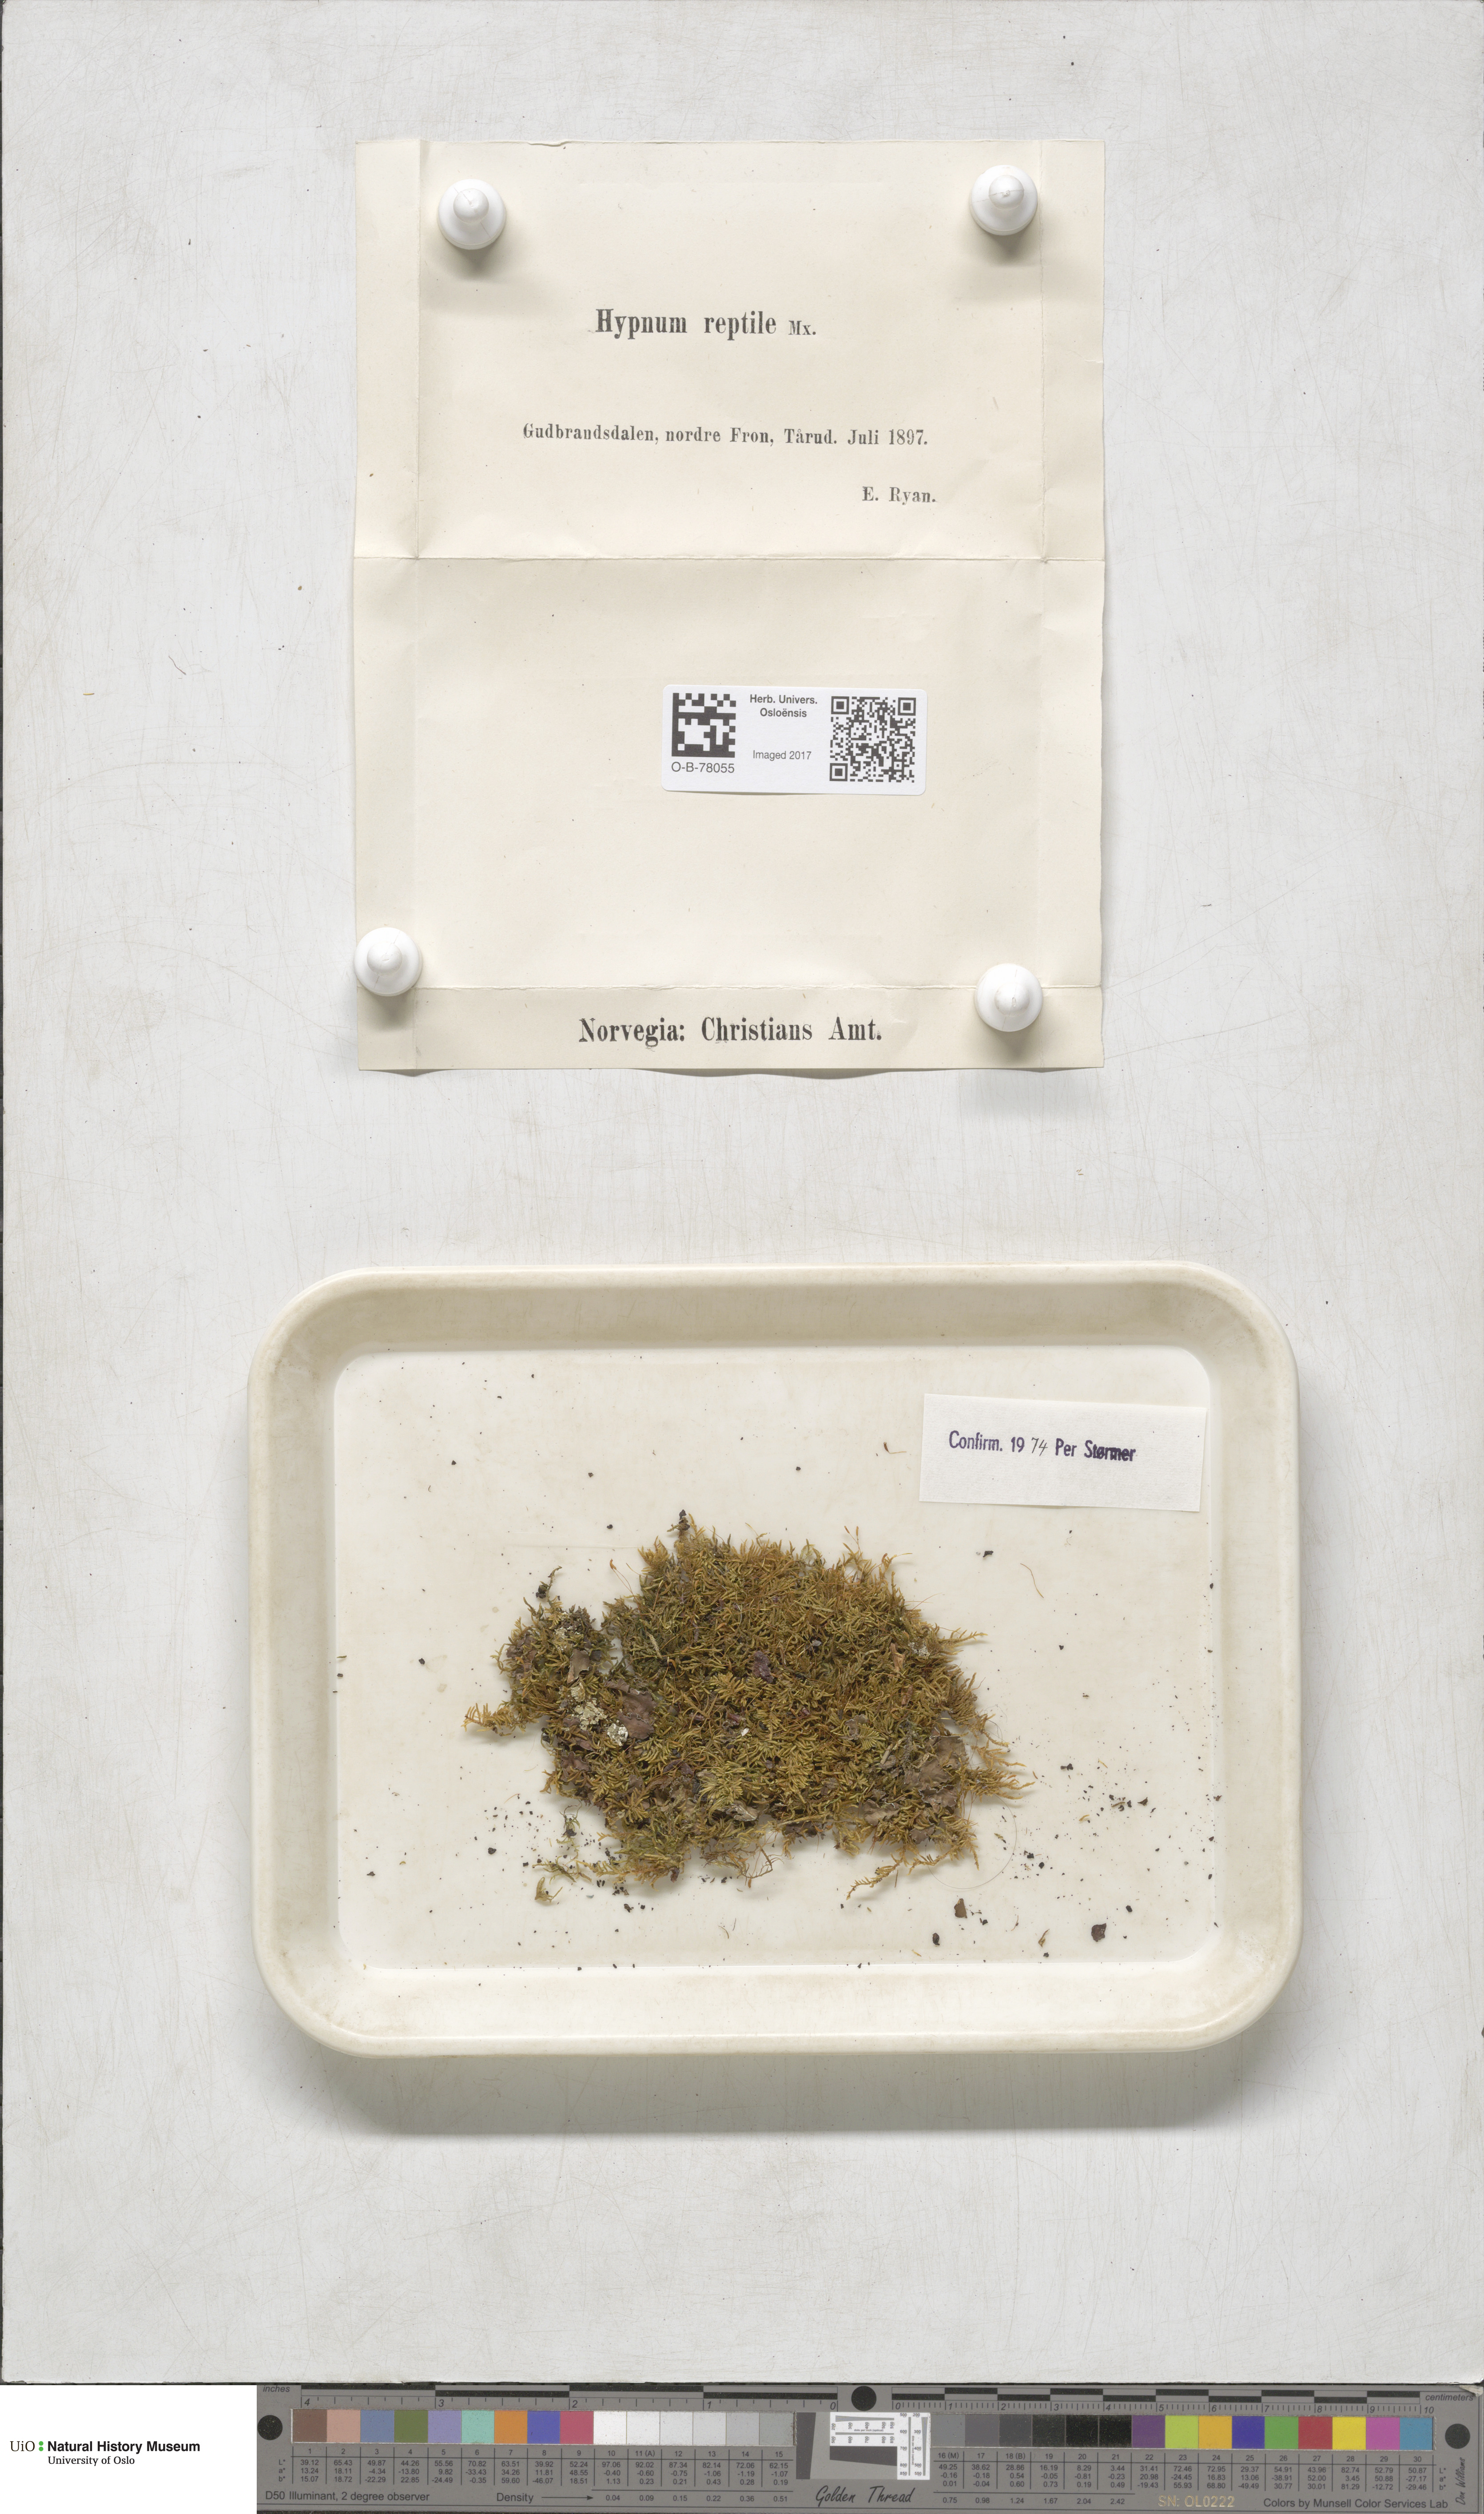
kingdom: Plantae
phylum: Bryophyta
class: Bryopsida
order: Hypnales
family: Jocheniaceae
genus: Jochenia
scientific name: Jochenia pallescens
